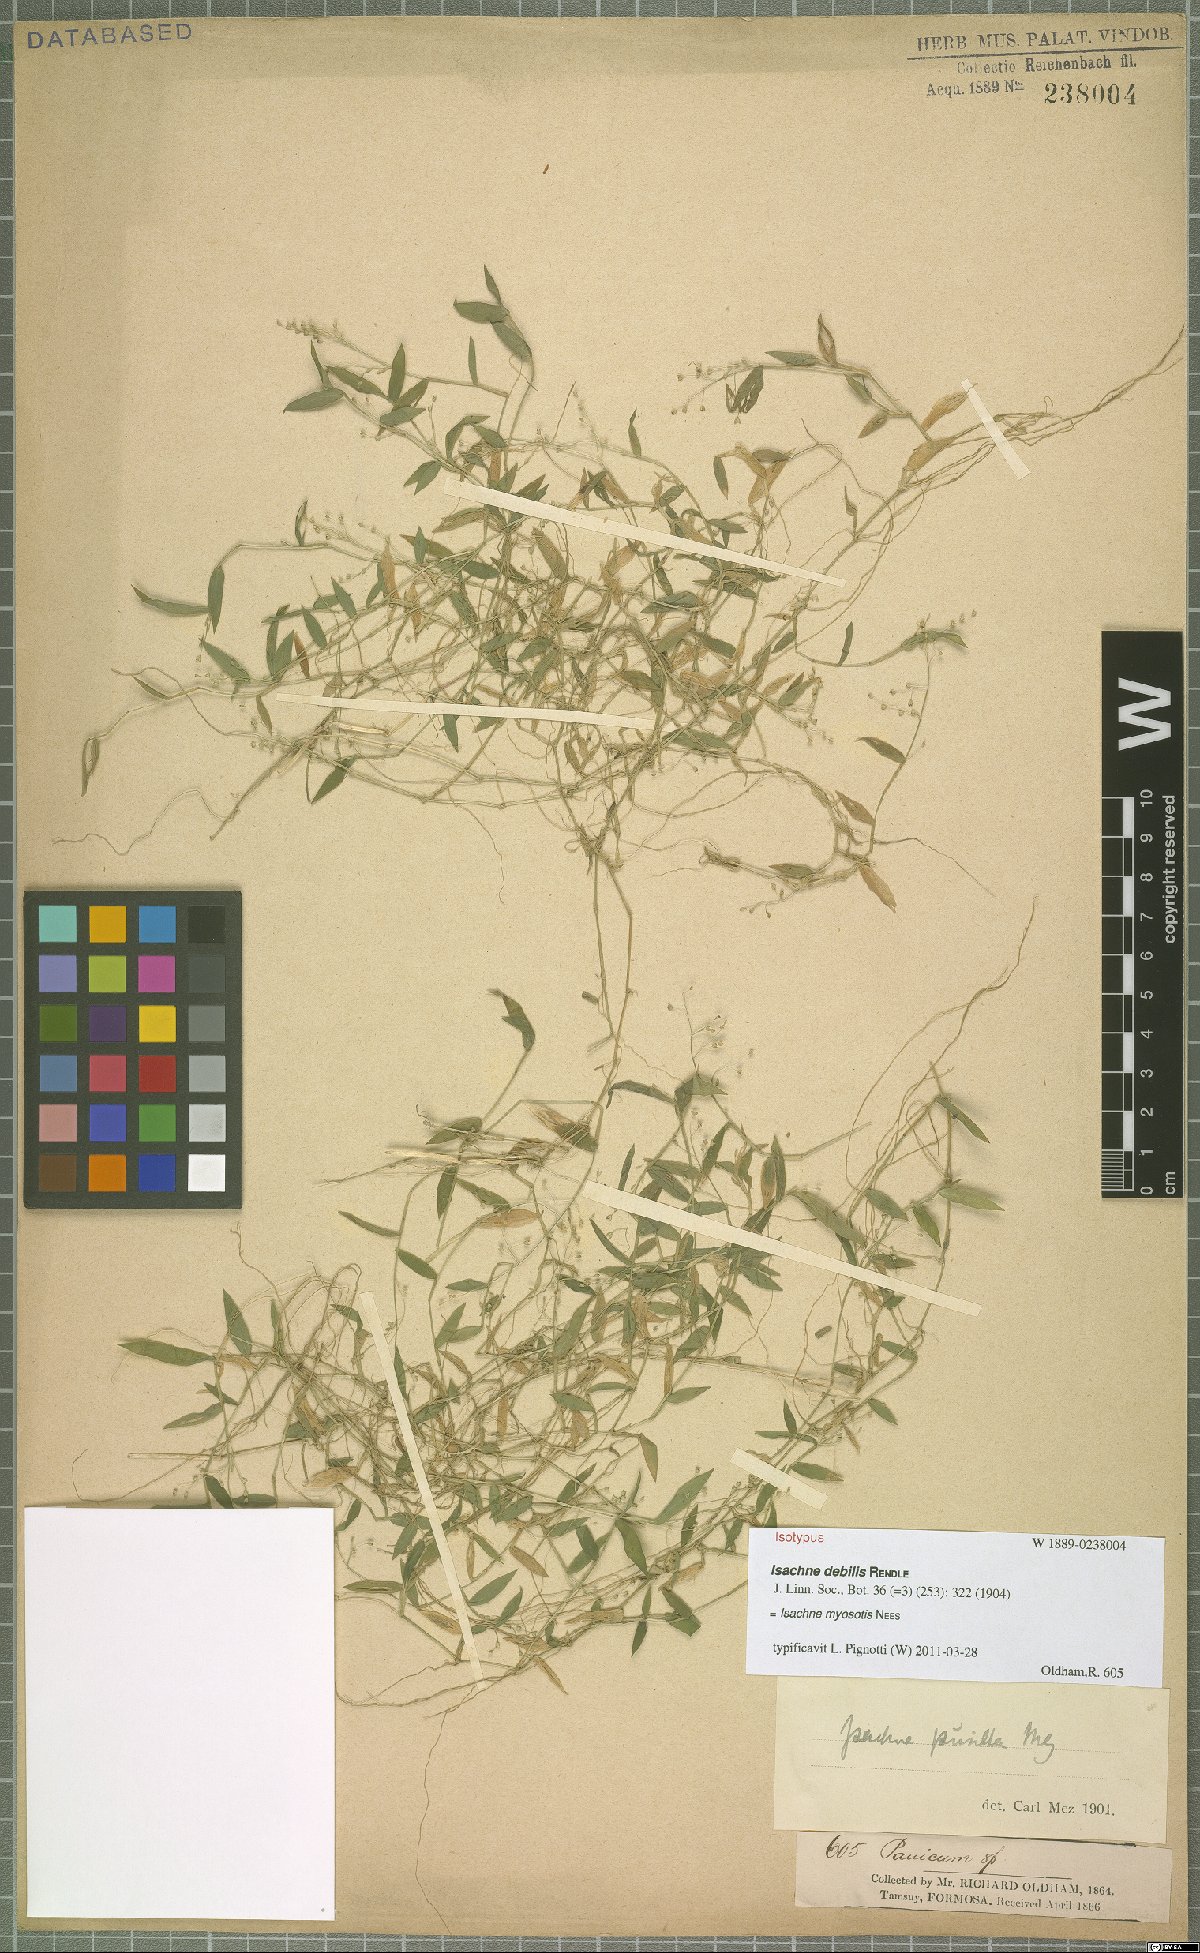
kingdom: Plantae
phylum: Tracheophyta
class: Liliopsida
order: Poales
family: Poaceae
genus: Isachne
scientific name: Isachne myosotis
